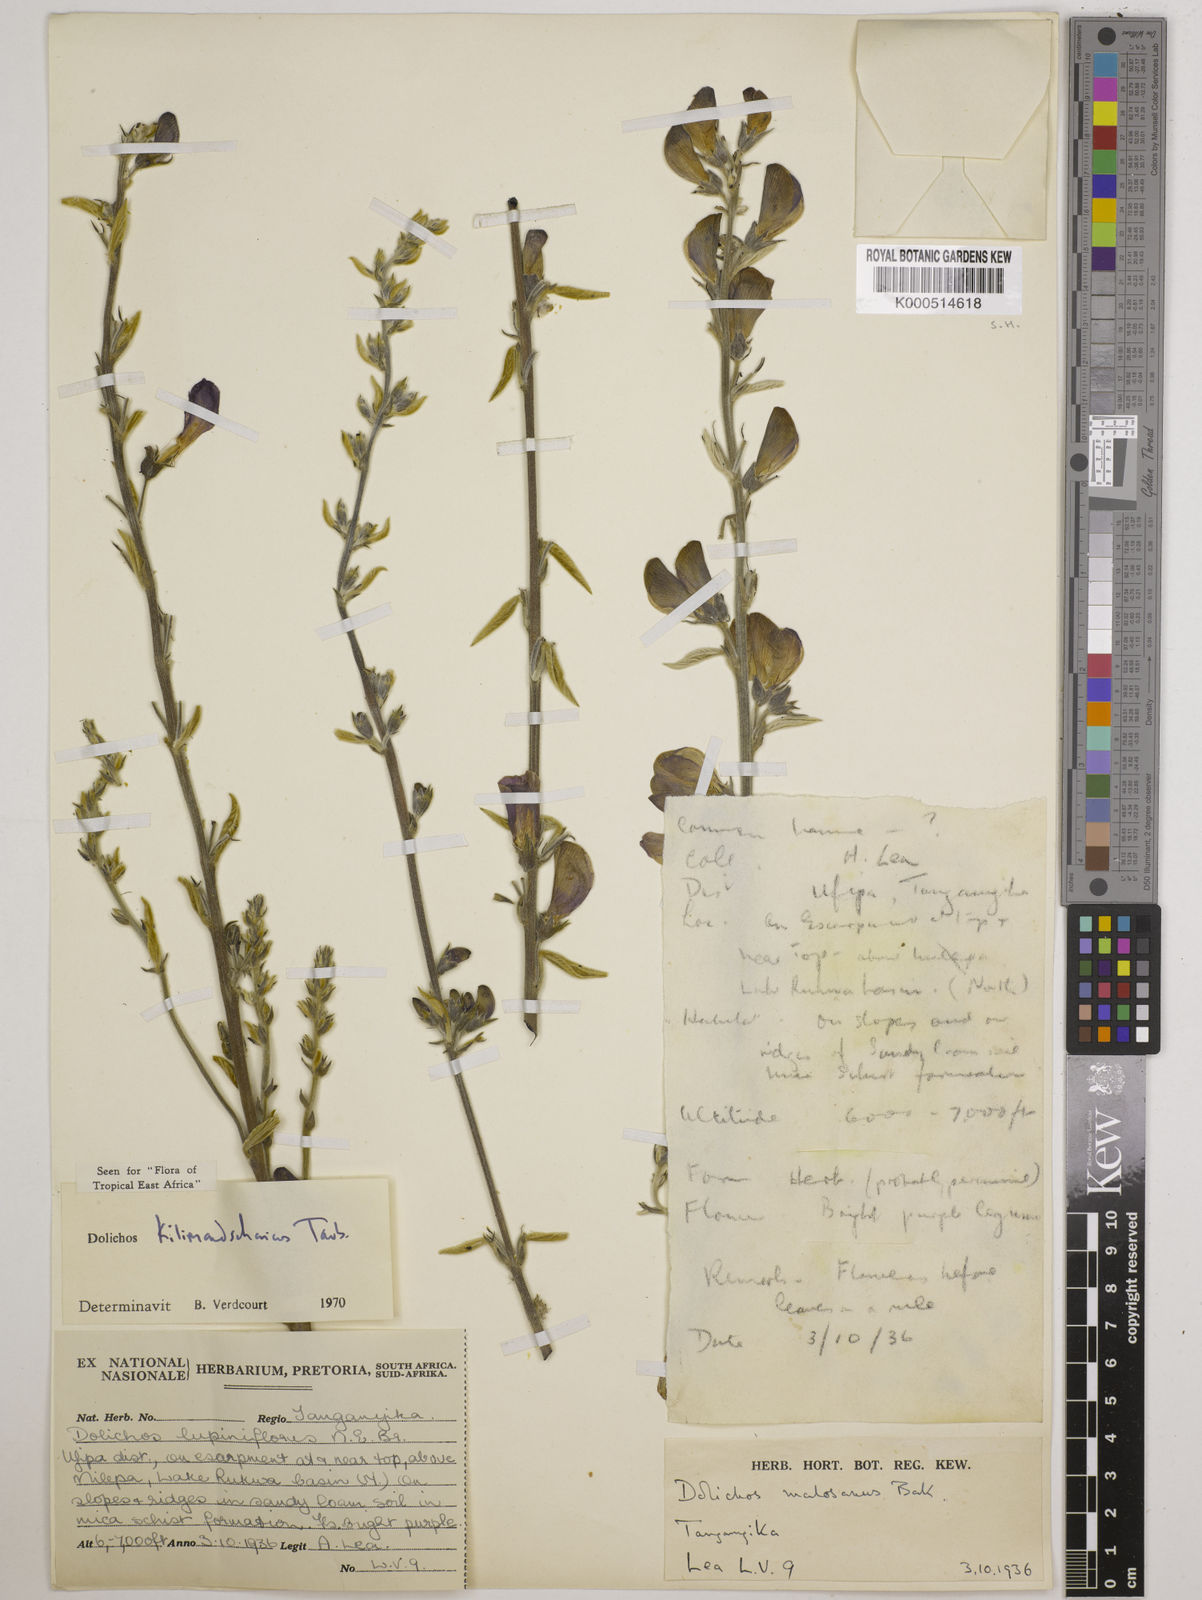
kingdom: Plantae
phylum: Tracheophyta
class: Magnoliopsida
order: Fabales
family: Fabaceae
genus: Dolichos
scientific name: Dolichos kilimandscharicus
